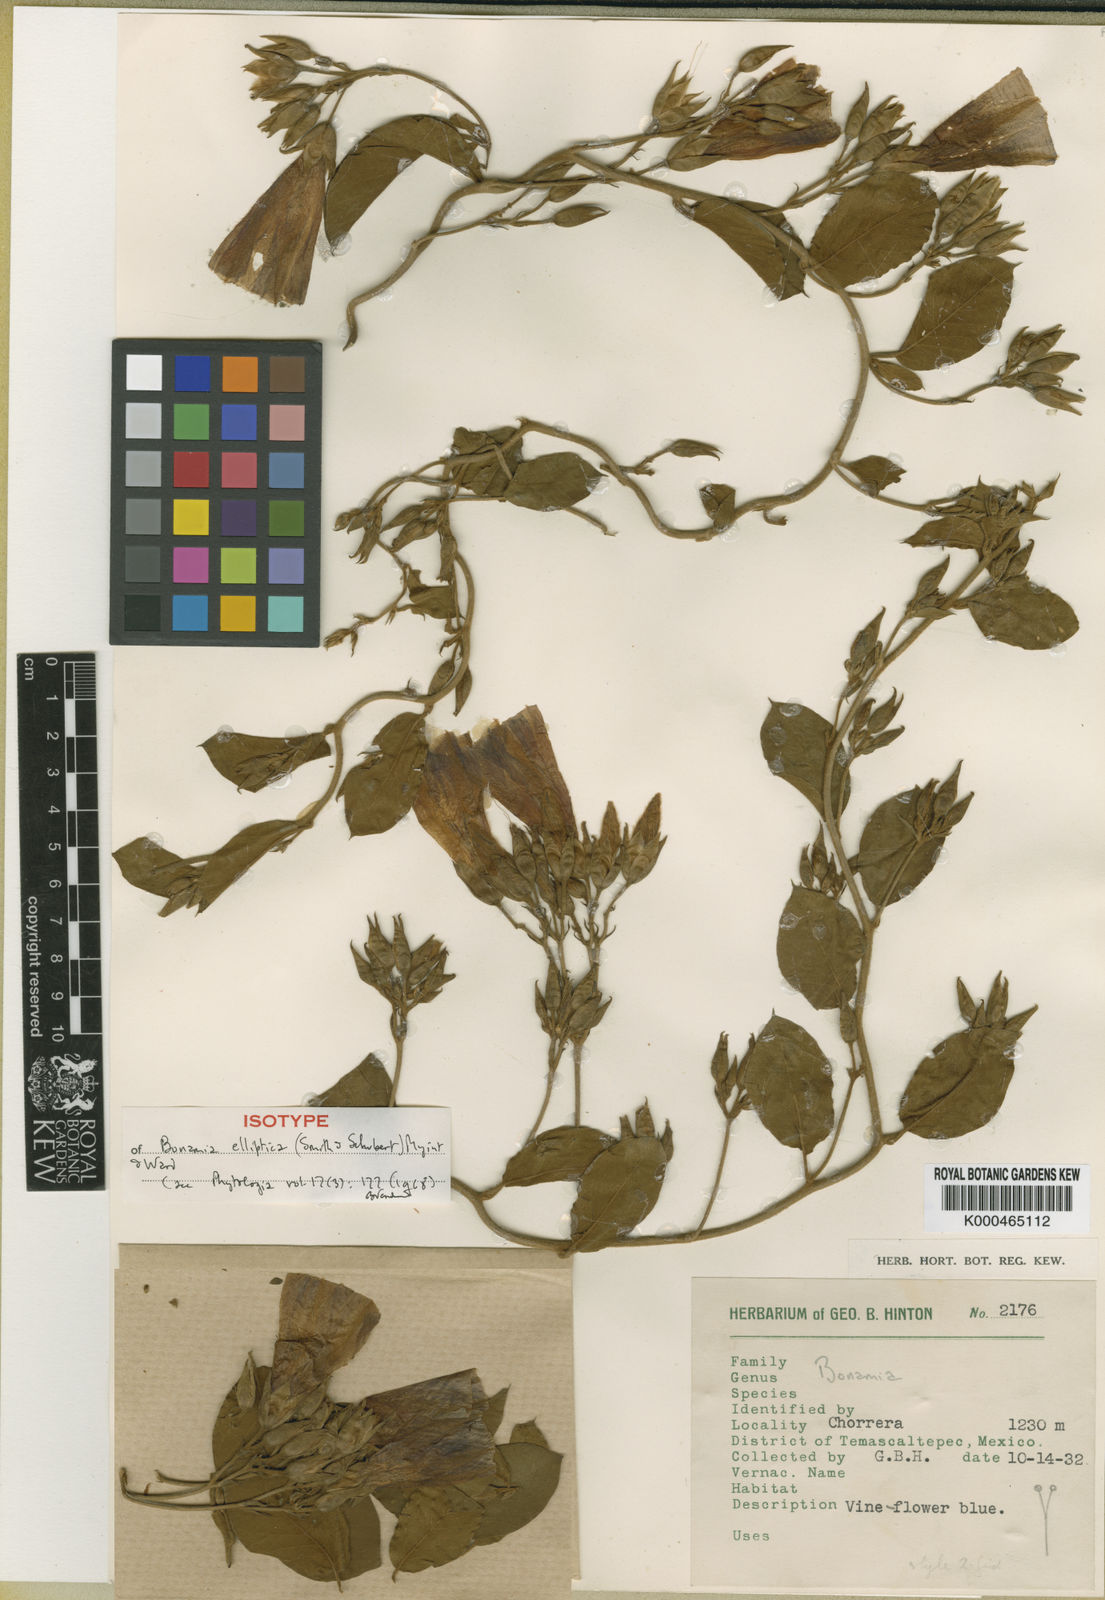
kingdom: Plantae
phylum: Tracheophyta
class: Magnoliopsida
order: Solanales
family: Convolvulaceae
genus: Bonamia
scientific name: Bonamia elliptica
